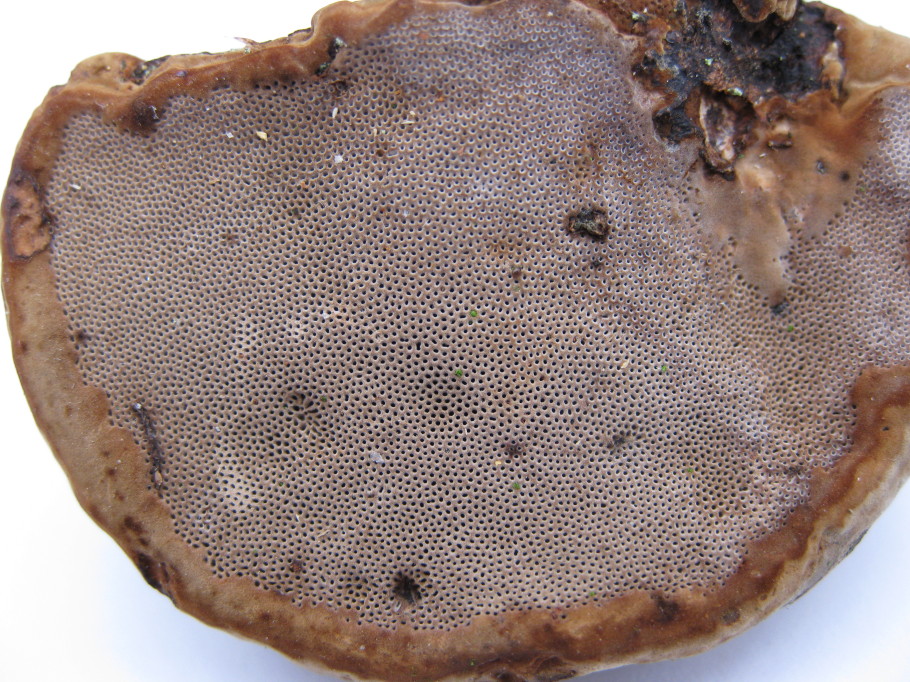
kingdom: Fungi
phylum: Basidiomycota
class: Agaricomycetes
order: Polyporales
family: Polyporaceae
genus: Fomes
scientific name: Fomes fomentarius
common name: tøndersvamp
